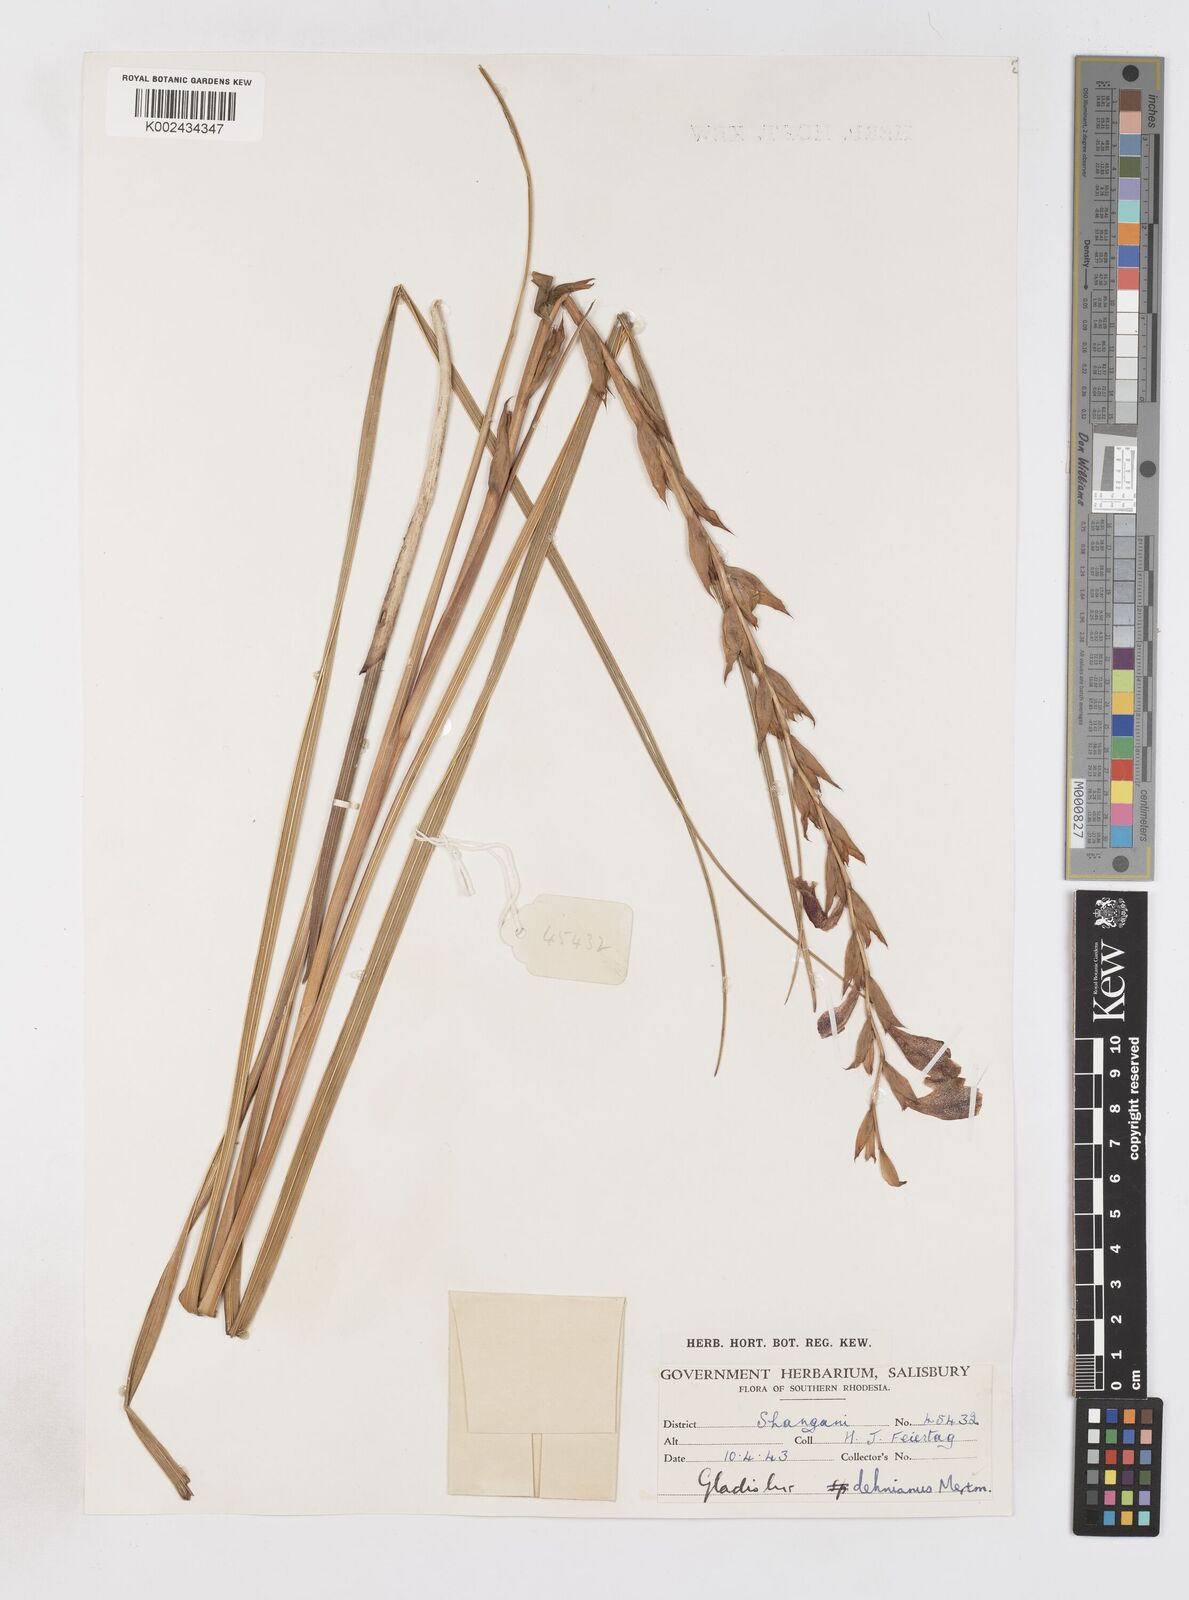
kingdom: Plantae
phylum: Tracheophyta
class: Liliopsida
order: Asparagales
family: Iridaceae
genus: Gladiolus
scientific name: Gladiolus sericeovillosus
